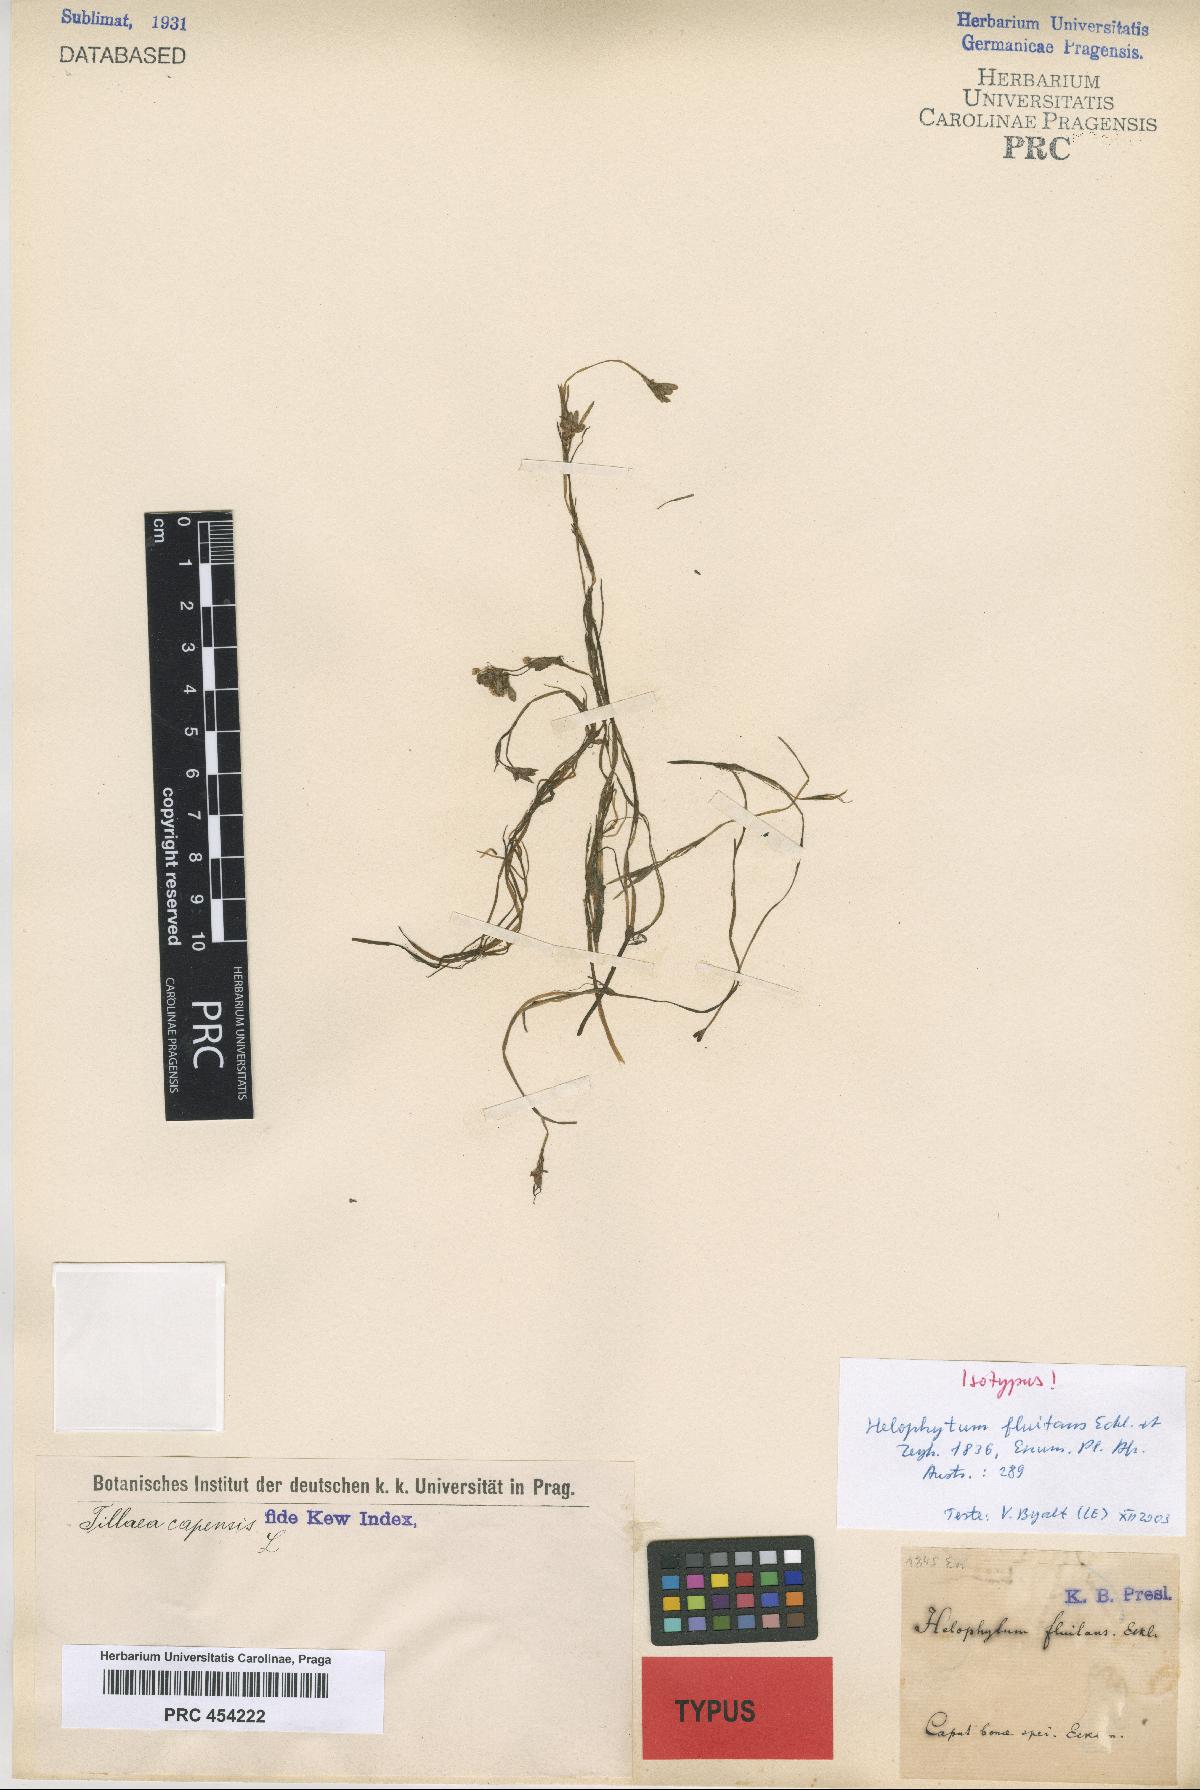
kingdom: Plantae
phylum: Tracheophyta
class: Magnoliopsida
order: Saxifragales
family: Crassulaceae
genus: Crassula
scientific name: Crassula natans
